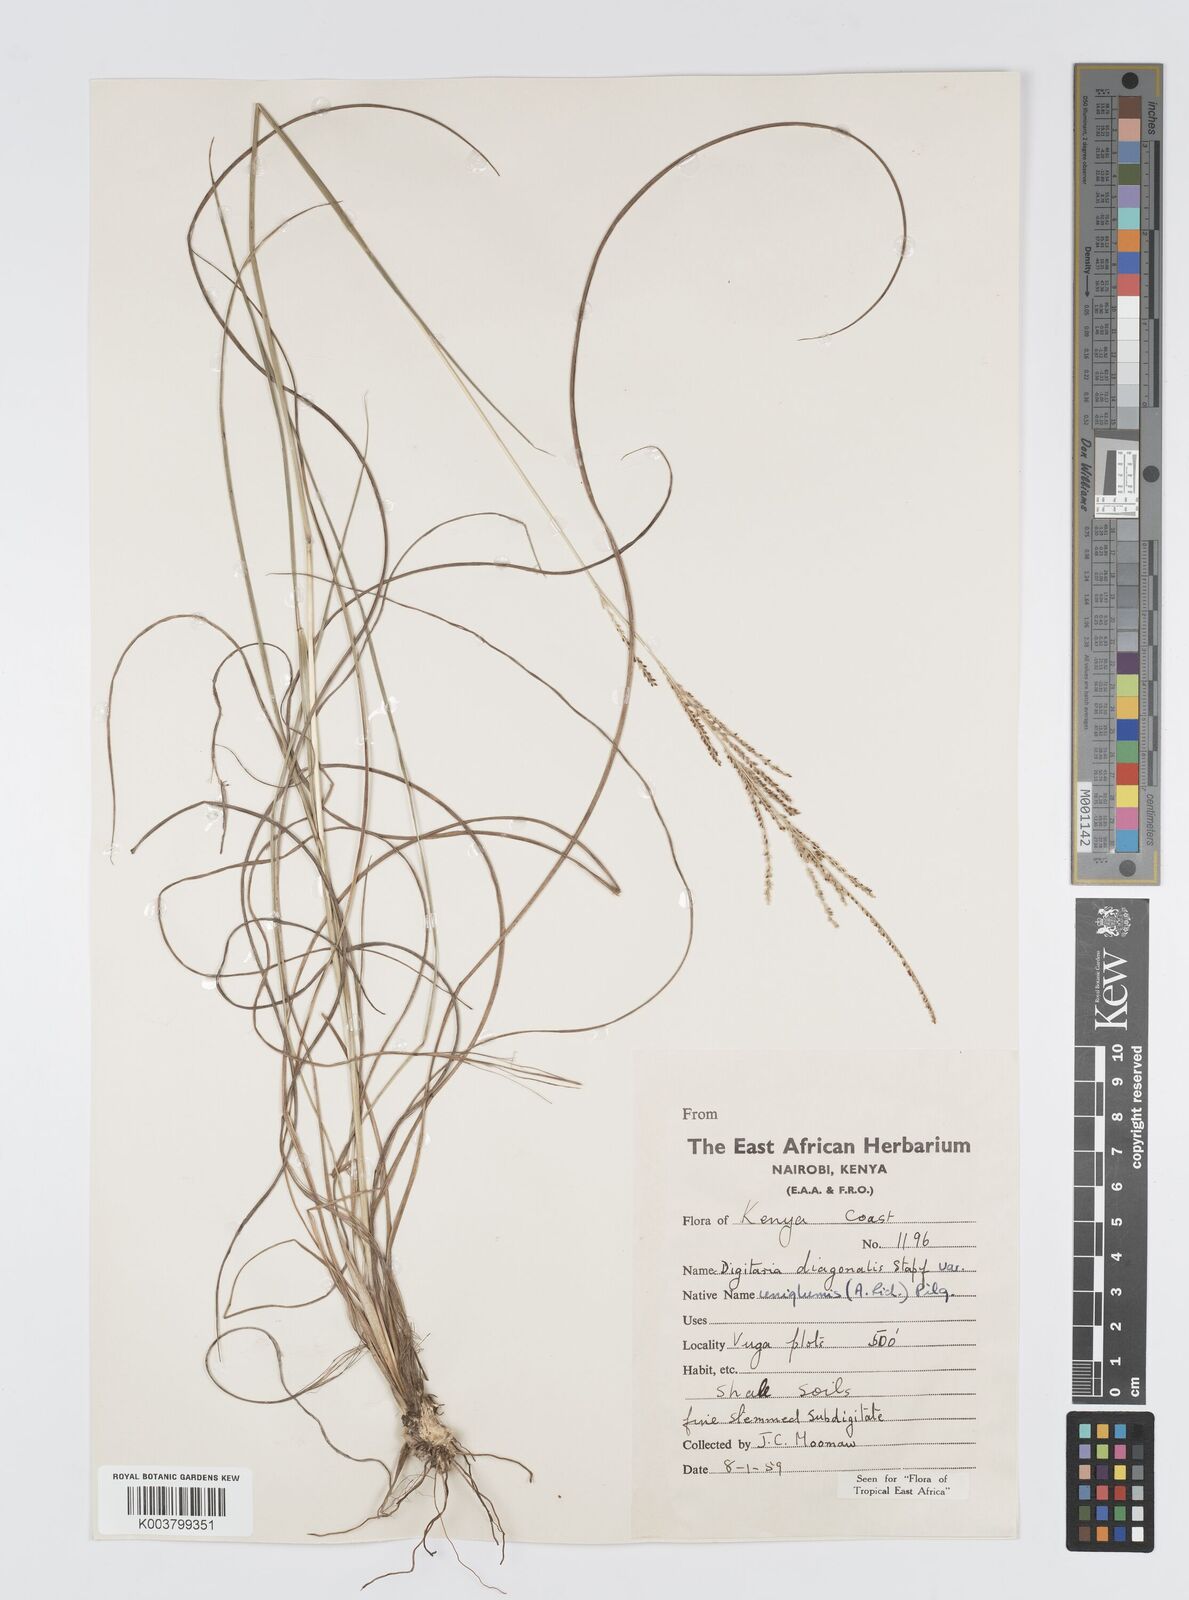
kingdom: Plantae
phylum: Tracheophyta
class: Liliopsida
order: Poales
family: Poaceae
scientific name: Poaceae
